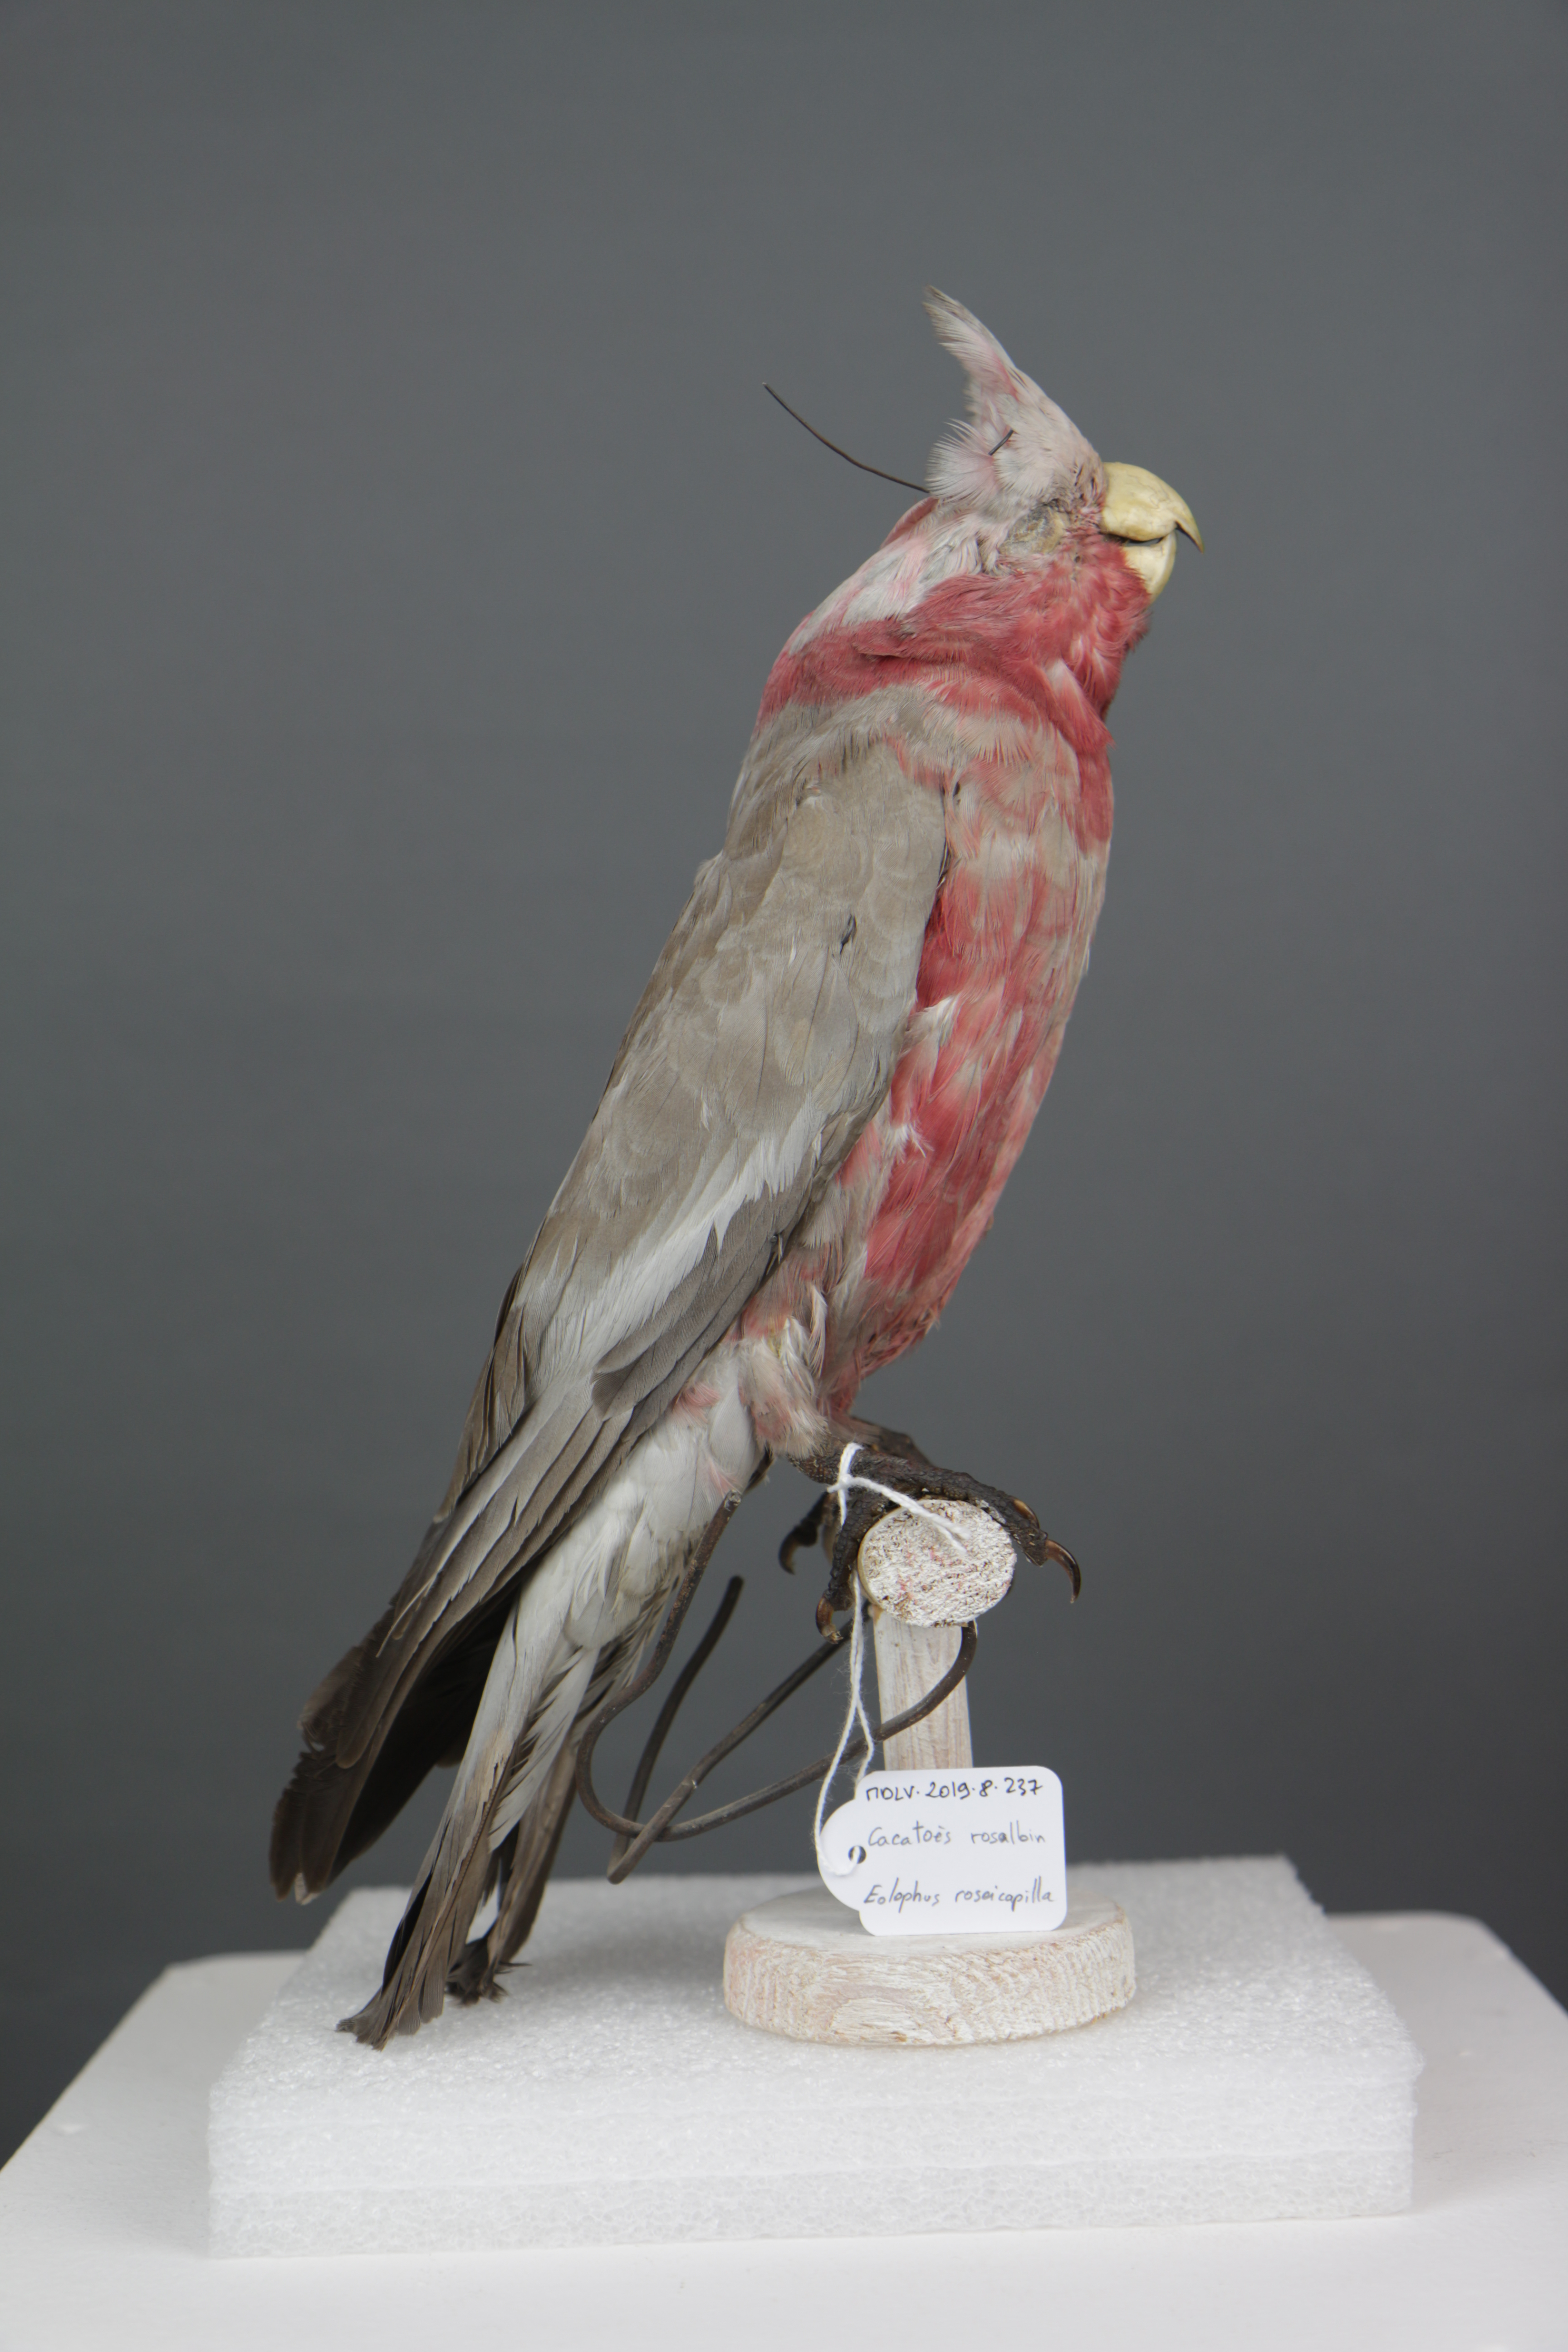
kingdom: Animalia
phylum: Chordata
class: Aves
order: Psittaciformes
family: Psittacidae
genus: Eolophus
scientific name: Eolophus roseicapilla
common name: Galah
